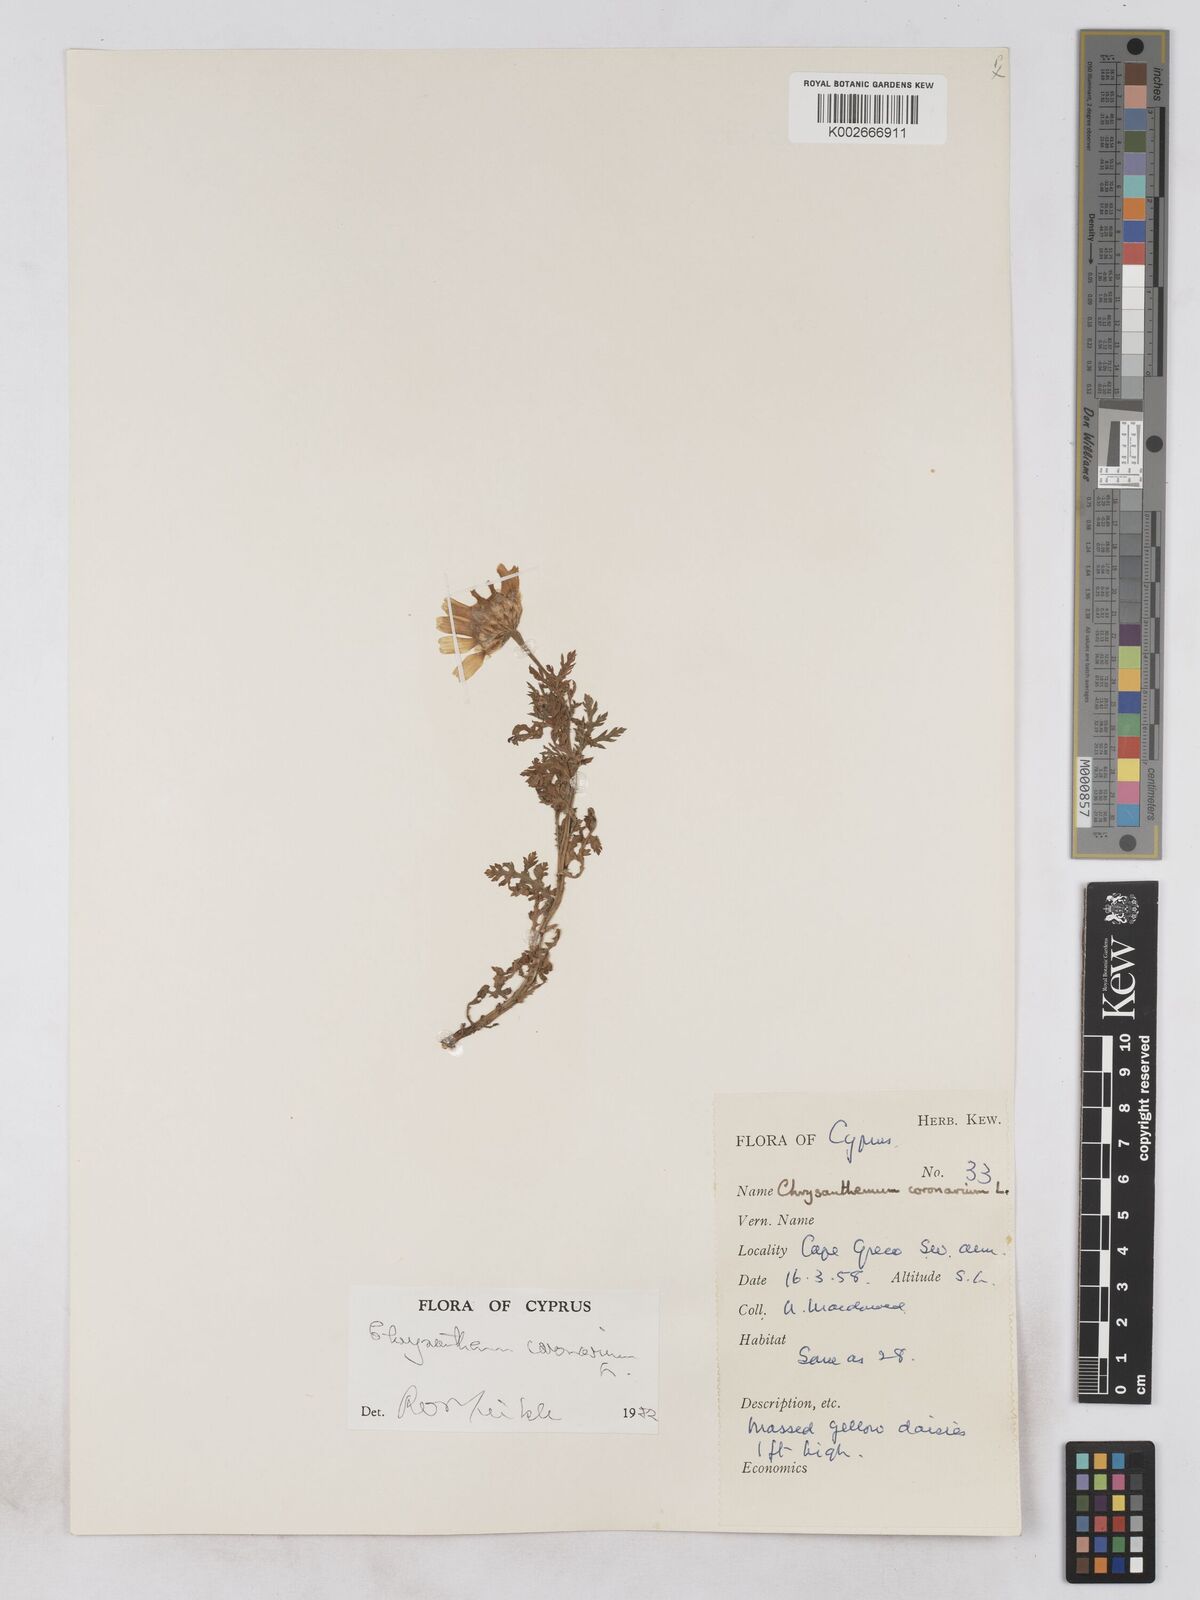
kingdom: Plantae
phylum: Tracheophyta
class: Magnoliopsida
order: Asterales
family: Asteraceae
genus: Glebionis
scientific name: Glebionis coronaria
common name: Crowndaisy
